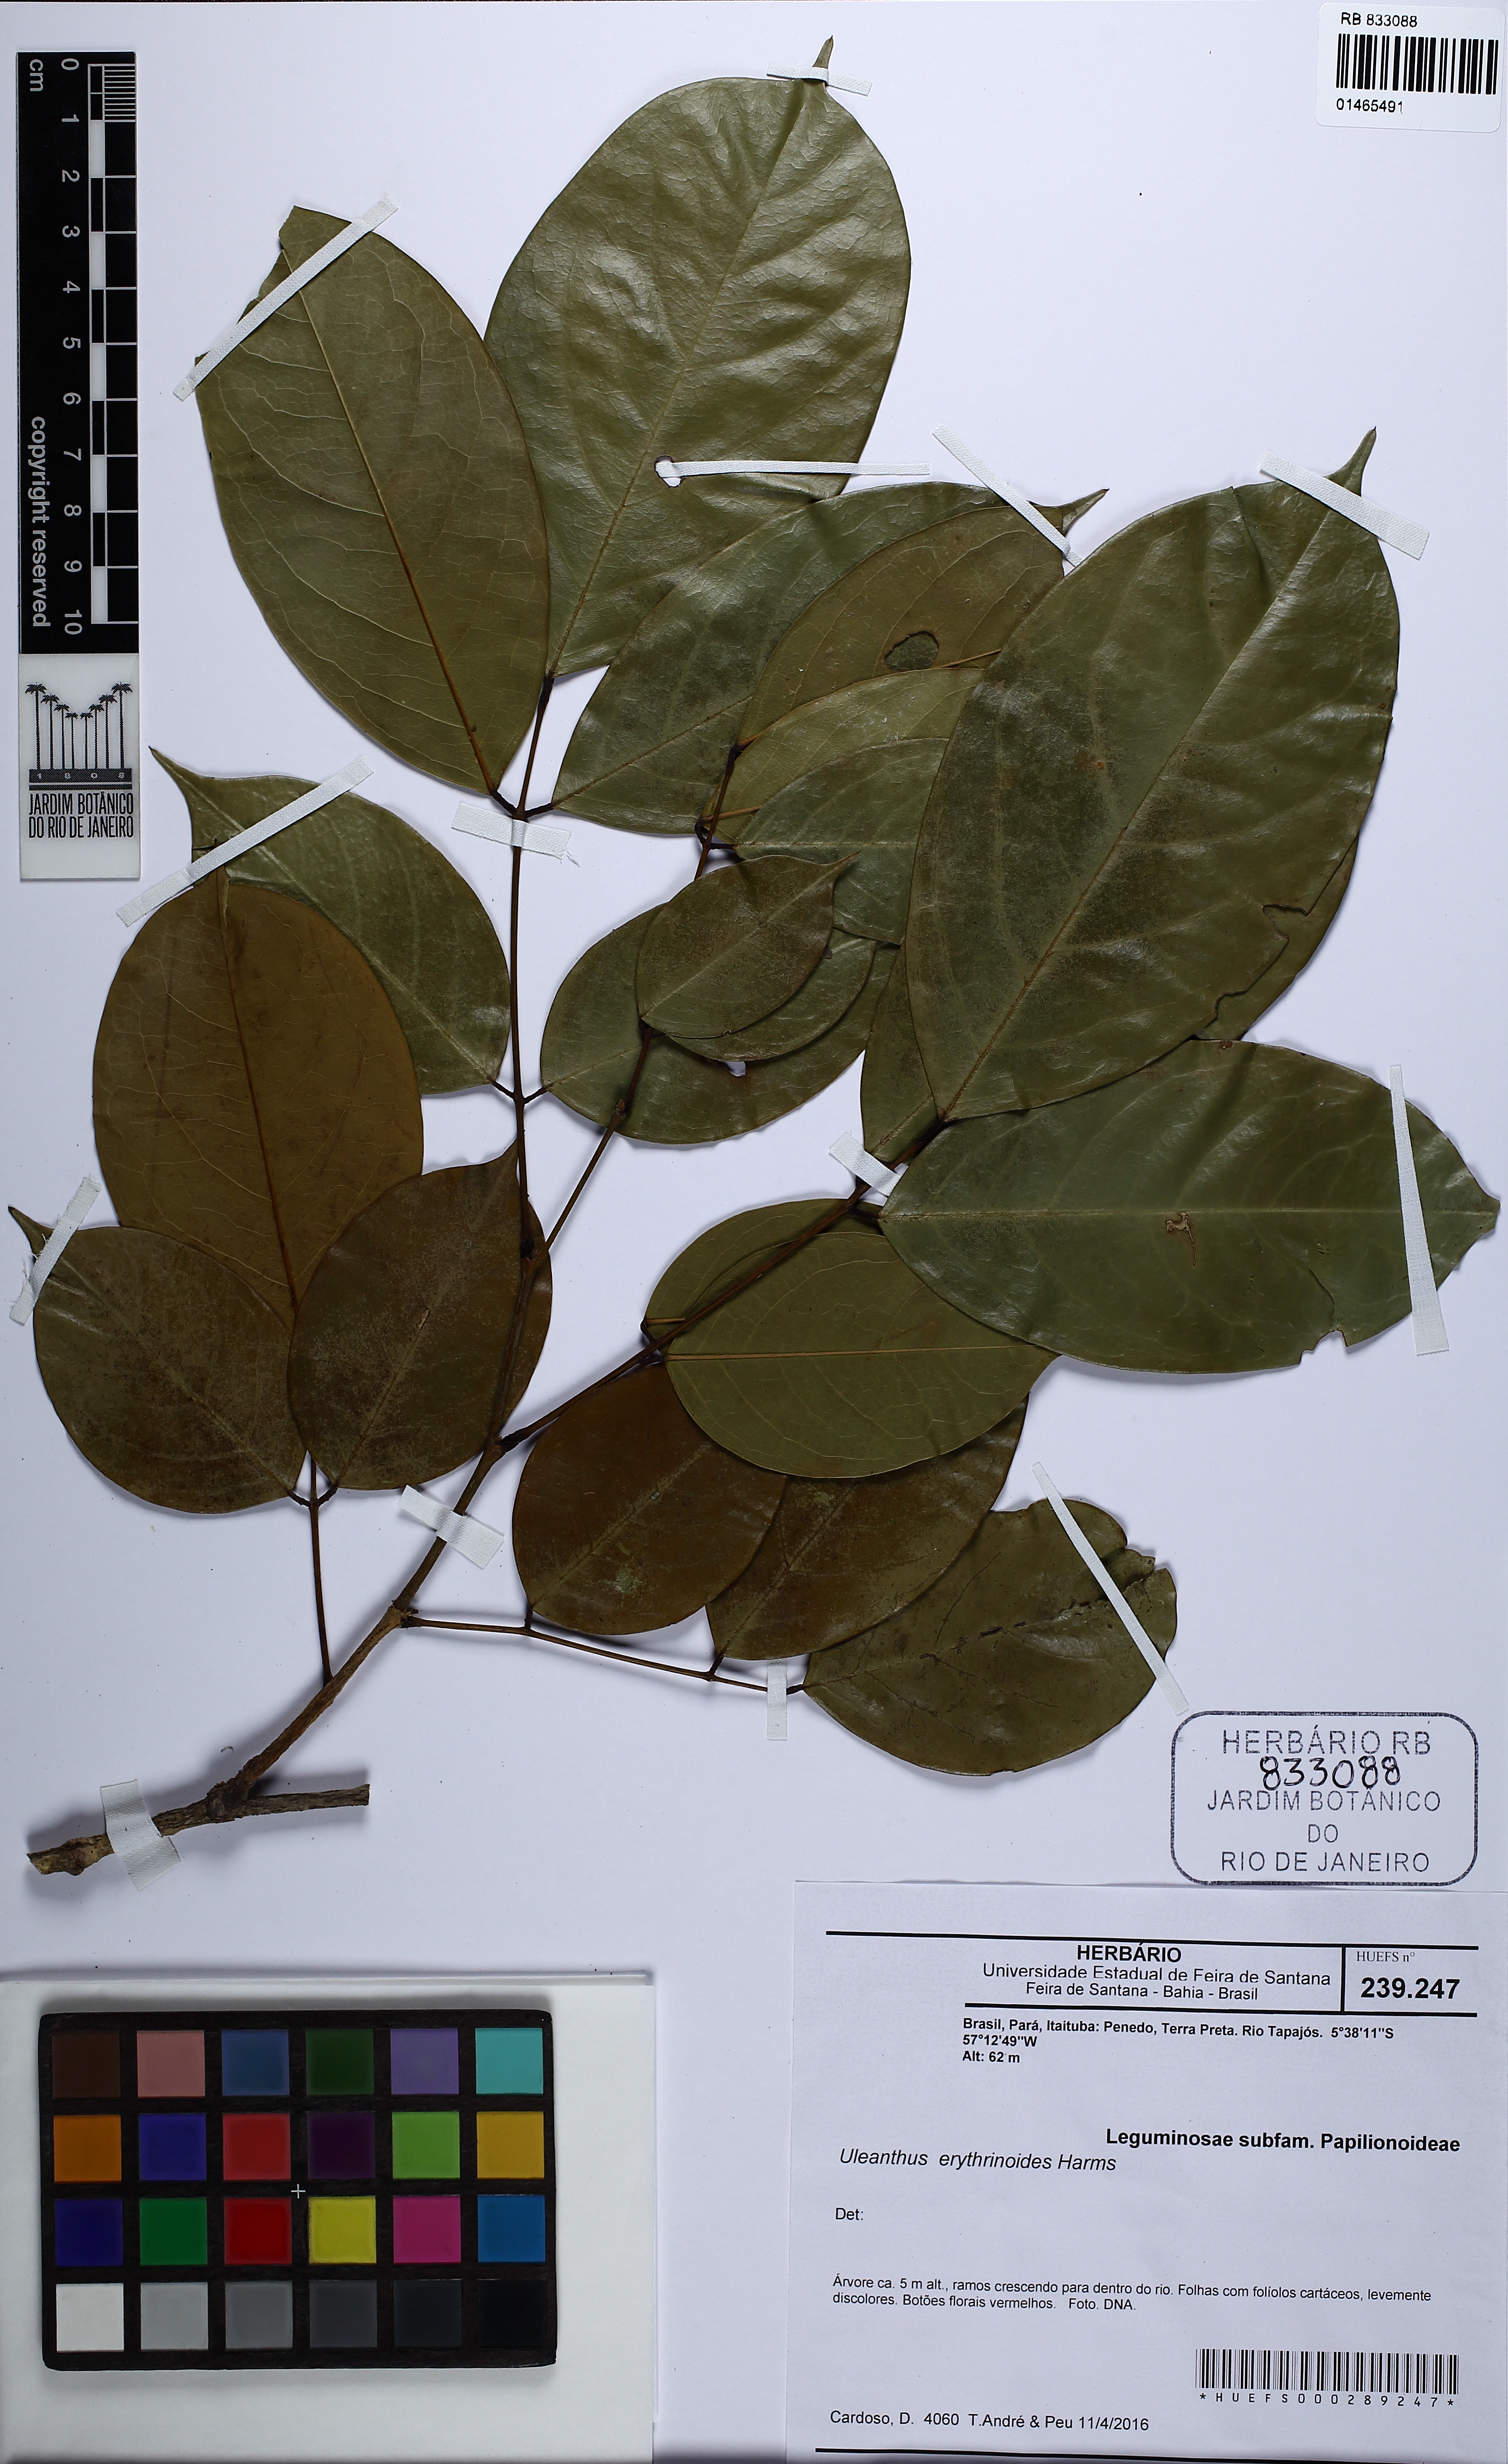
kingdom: Plantae
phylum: Tracheophyta
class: Magnoliopsida
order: Fabales
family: Fabaceae
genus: Uleanthus
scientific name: Uleanthus erythrinoides
